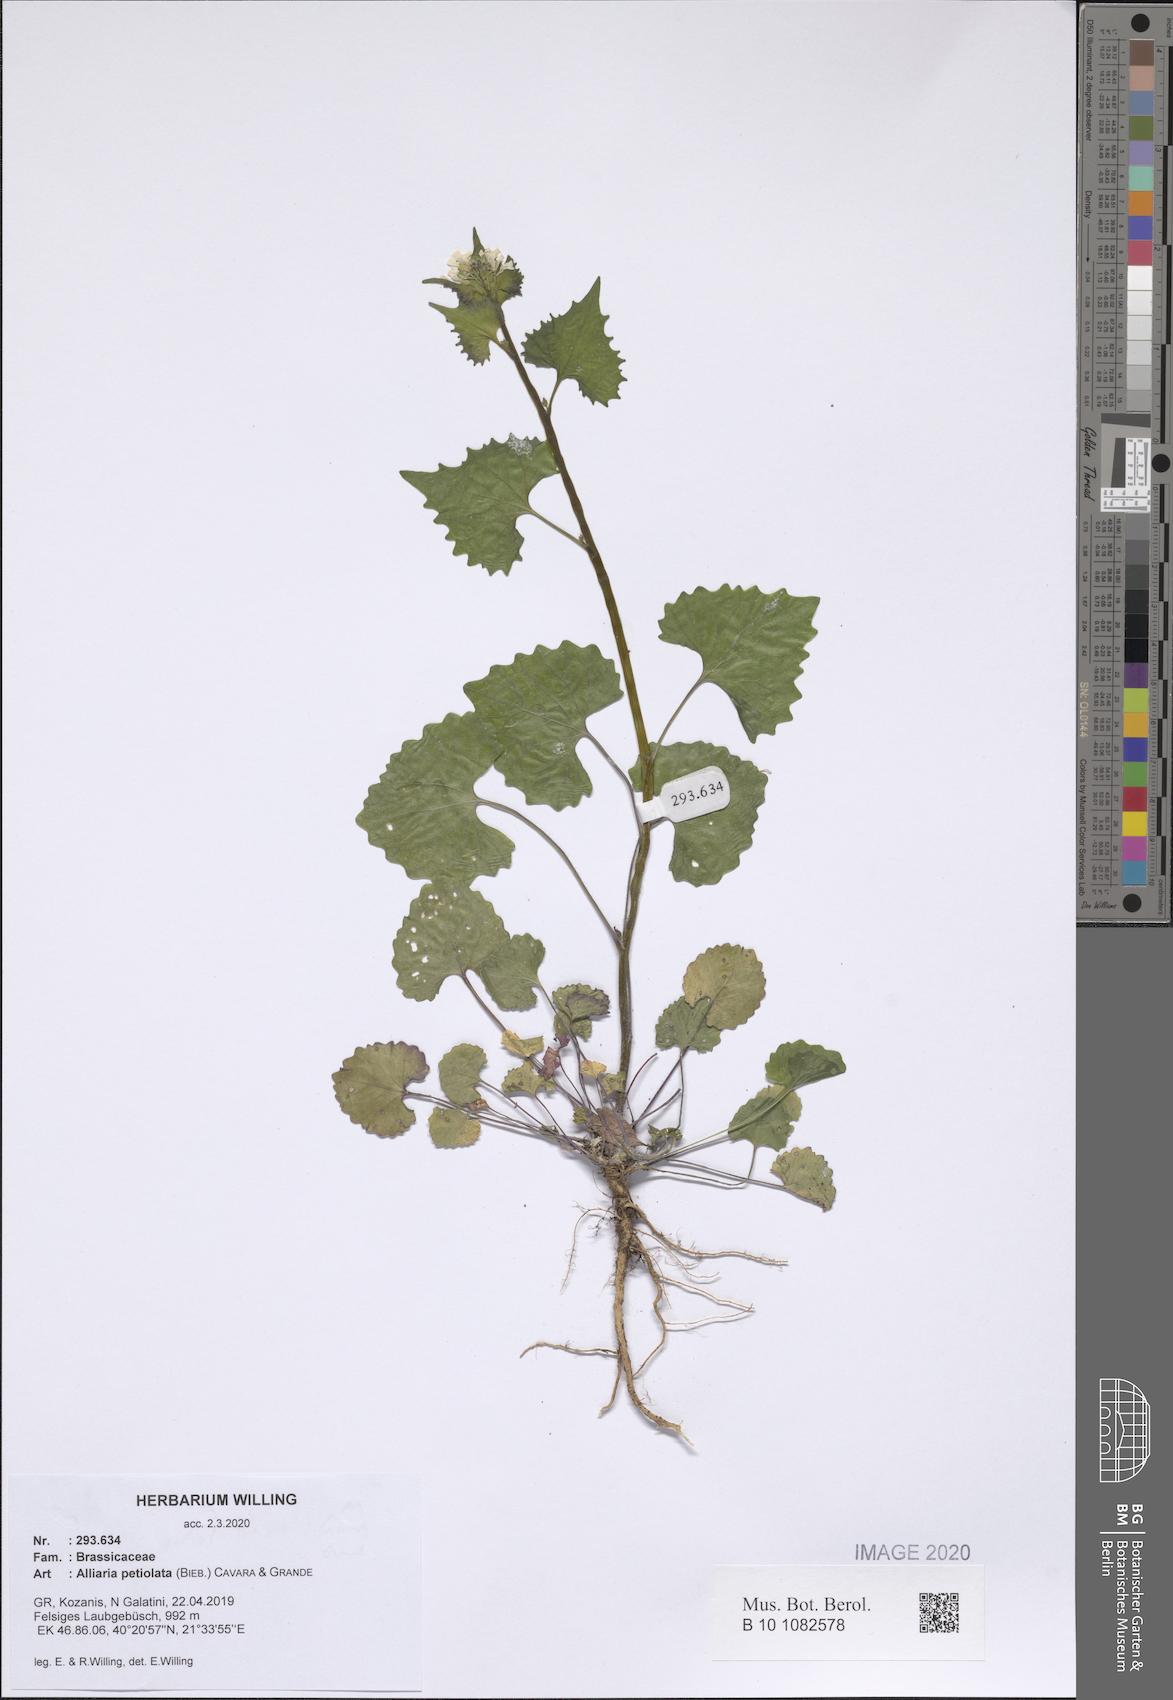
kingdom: Plantae
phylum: Tracheophyta
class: Magnoliopsida
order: Brassicales
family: Brassicaceae
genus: Alliaria
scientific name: Alliaria petiolata
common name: Garlic mustard
